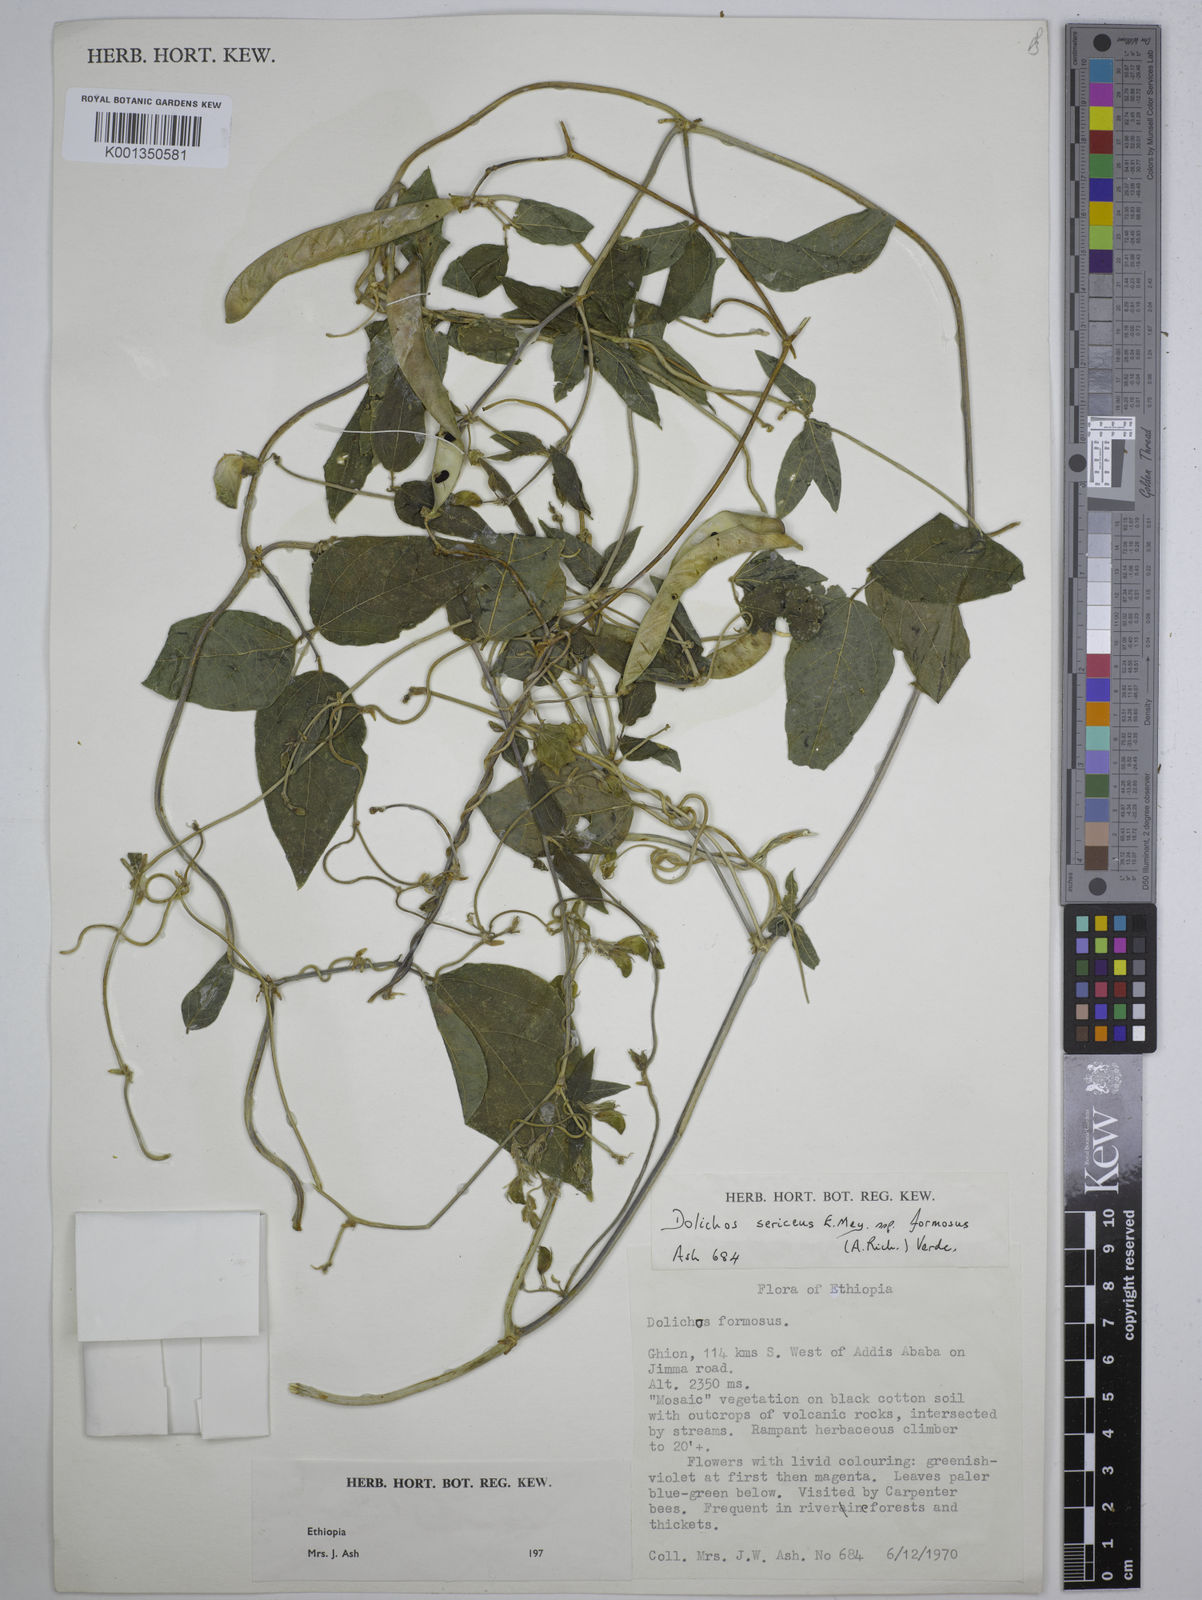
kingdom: Plantae
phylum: Tracheophyta
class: Magnoliopsida
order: Fabales
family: Fabaceae
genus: Dolichos
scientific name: Dolichos
